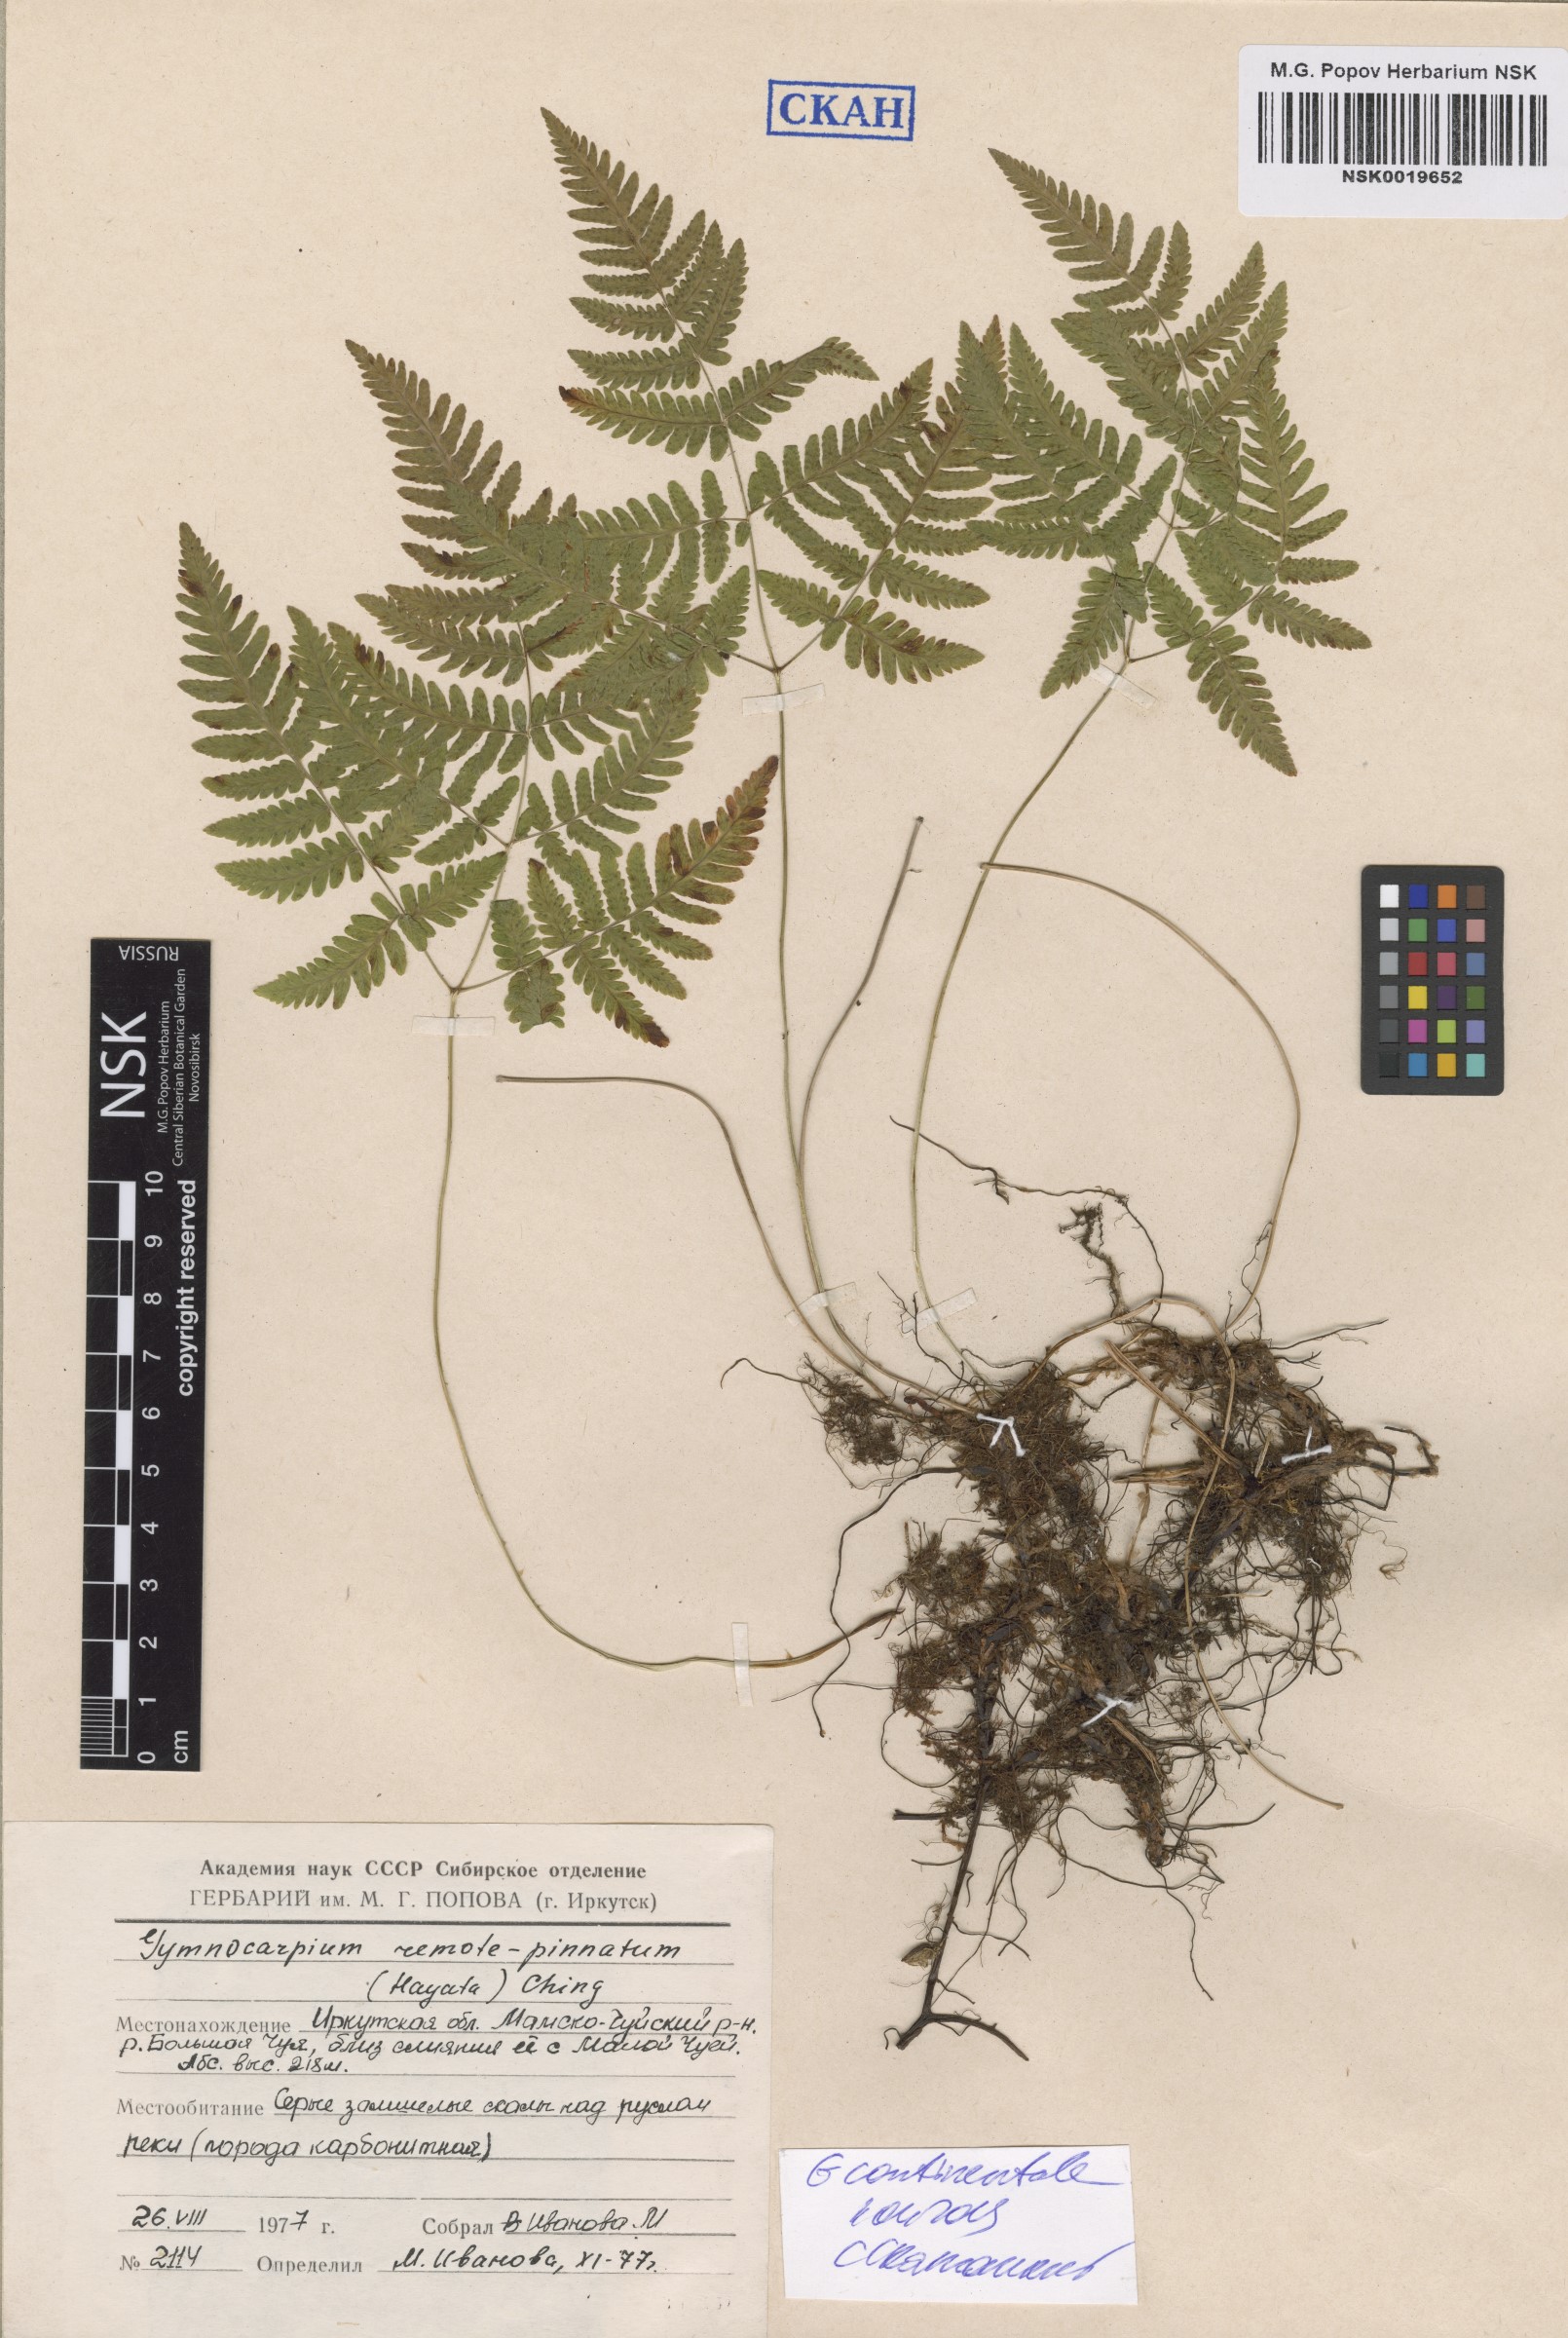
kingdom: Plantae
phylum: Tracheophyta
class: Polypodiopsida
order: Polypodiales
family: Cystopteridaceae
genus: Gymnocarpium
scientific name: Gymnocarpium continentale
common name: Asian oak fern
